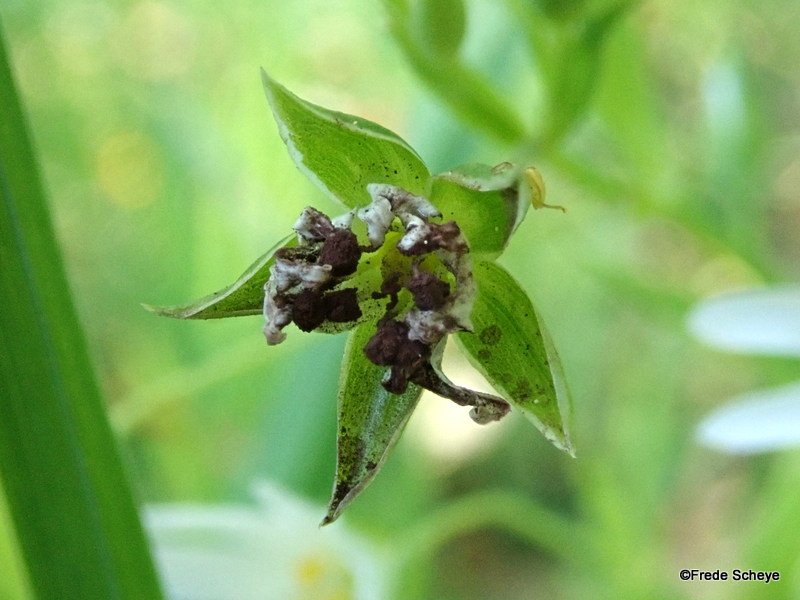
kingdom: Fungi
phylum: Basidiomycota
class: Microbotryomycetes
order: Microbotryales
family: Microbotryaceae
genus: Microbotryum
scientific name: Microbotryum stellariae
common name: fladstjerne-støvbladrust
